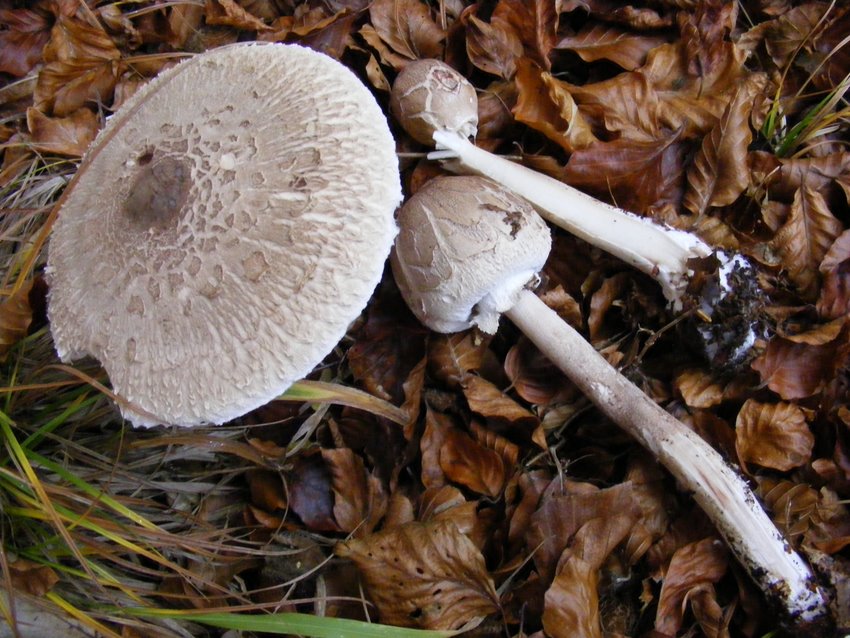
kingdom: Fungi
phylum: Basidiomycota
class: Agaricomycetes
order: Agaricales
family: Agaricaceae
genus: Macrolepiota
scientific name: Macrolepiota procera
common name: stor kæmpeparasolhat
